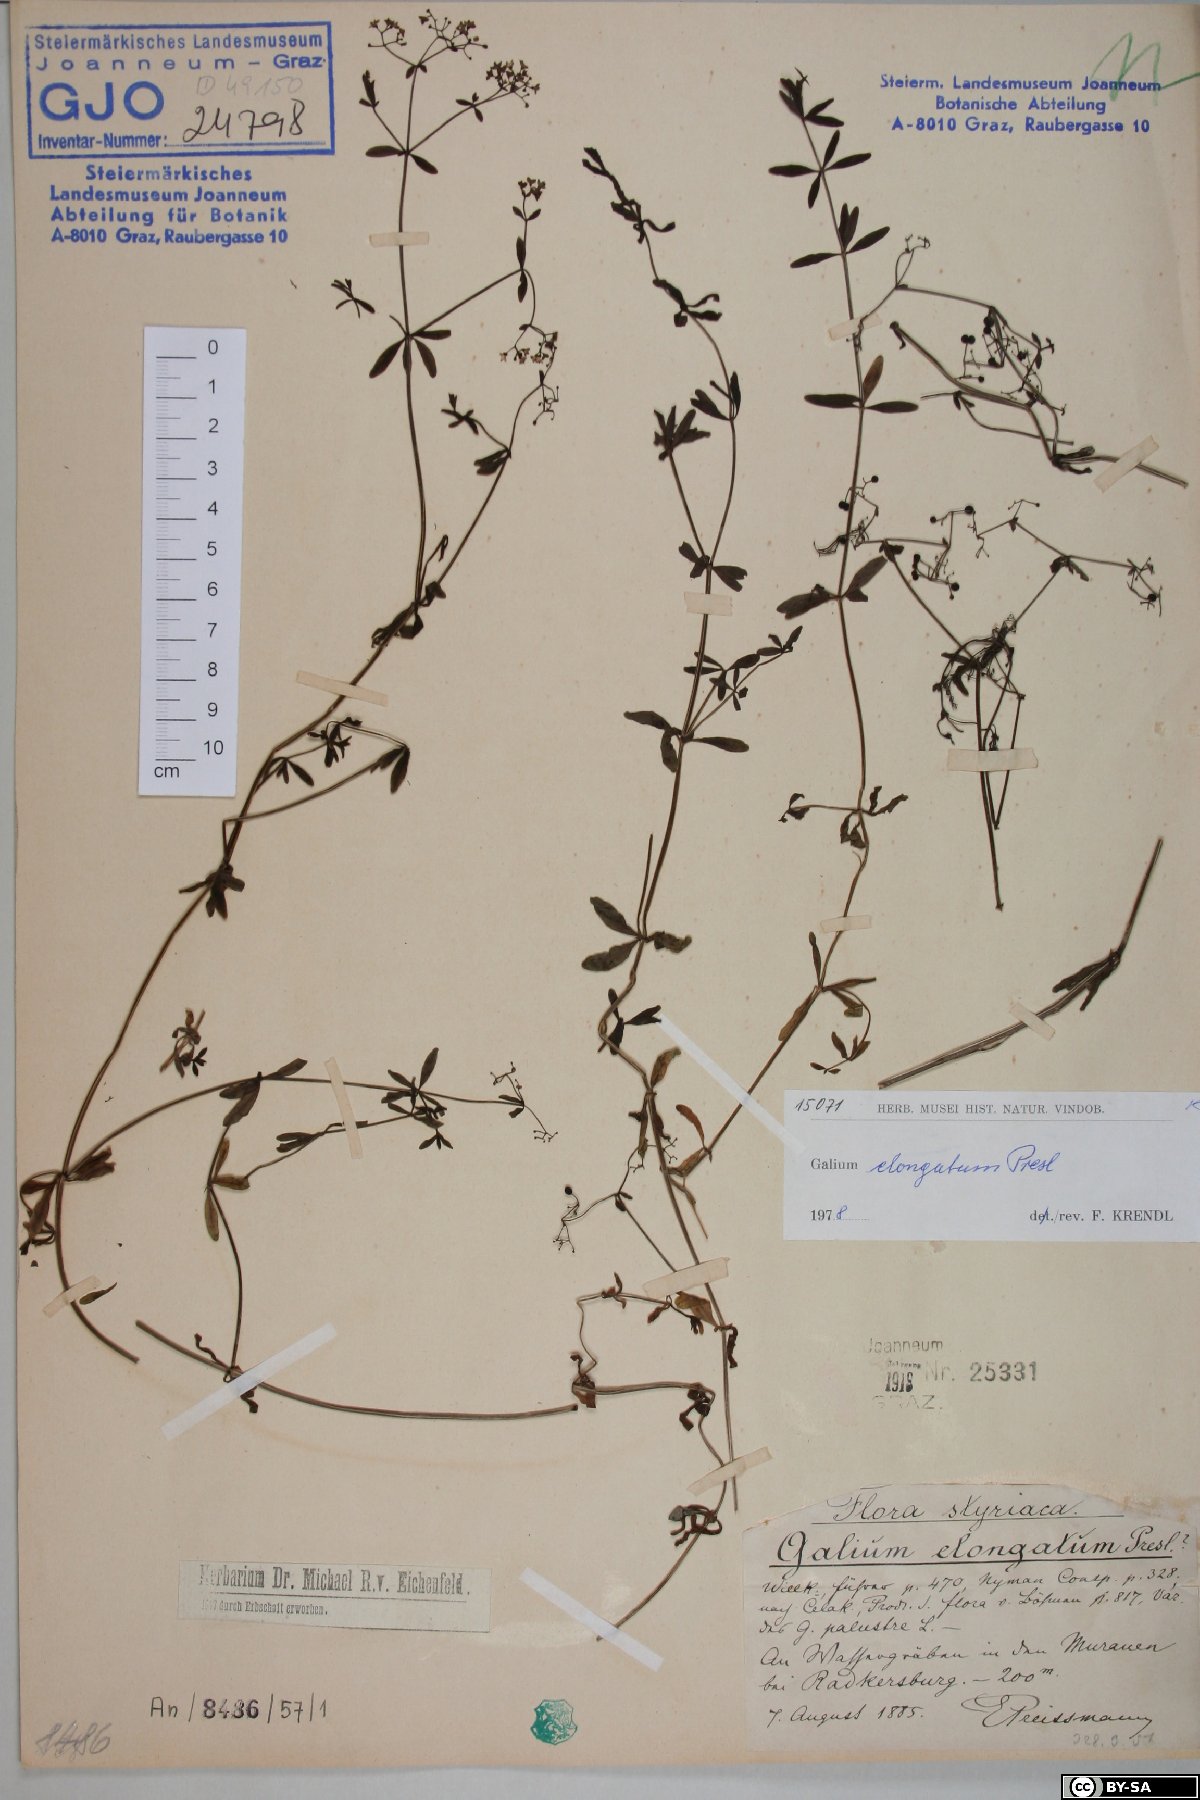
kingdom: Plantae
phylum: Tracheophyta
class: Magnoliopsida
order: Gentianales
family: Rubiaceae
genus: Galium
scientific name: Galium elongatum
